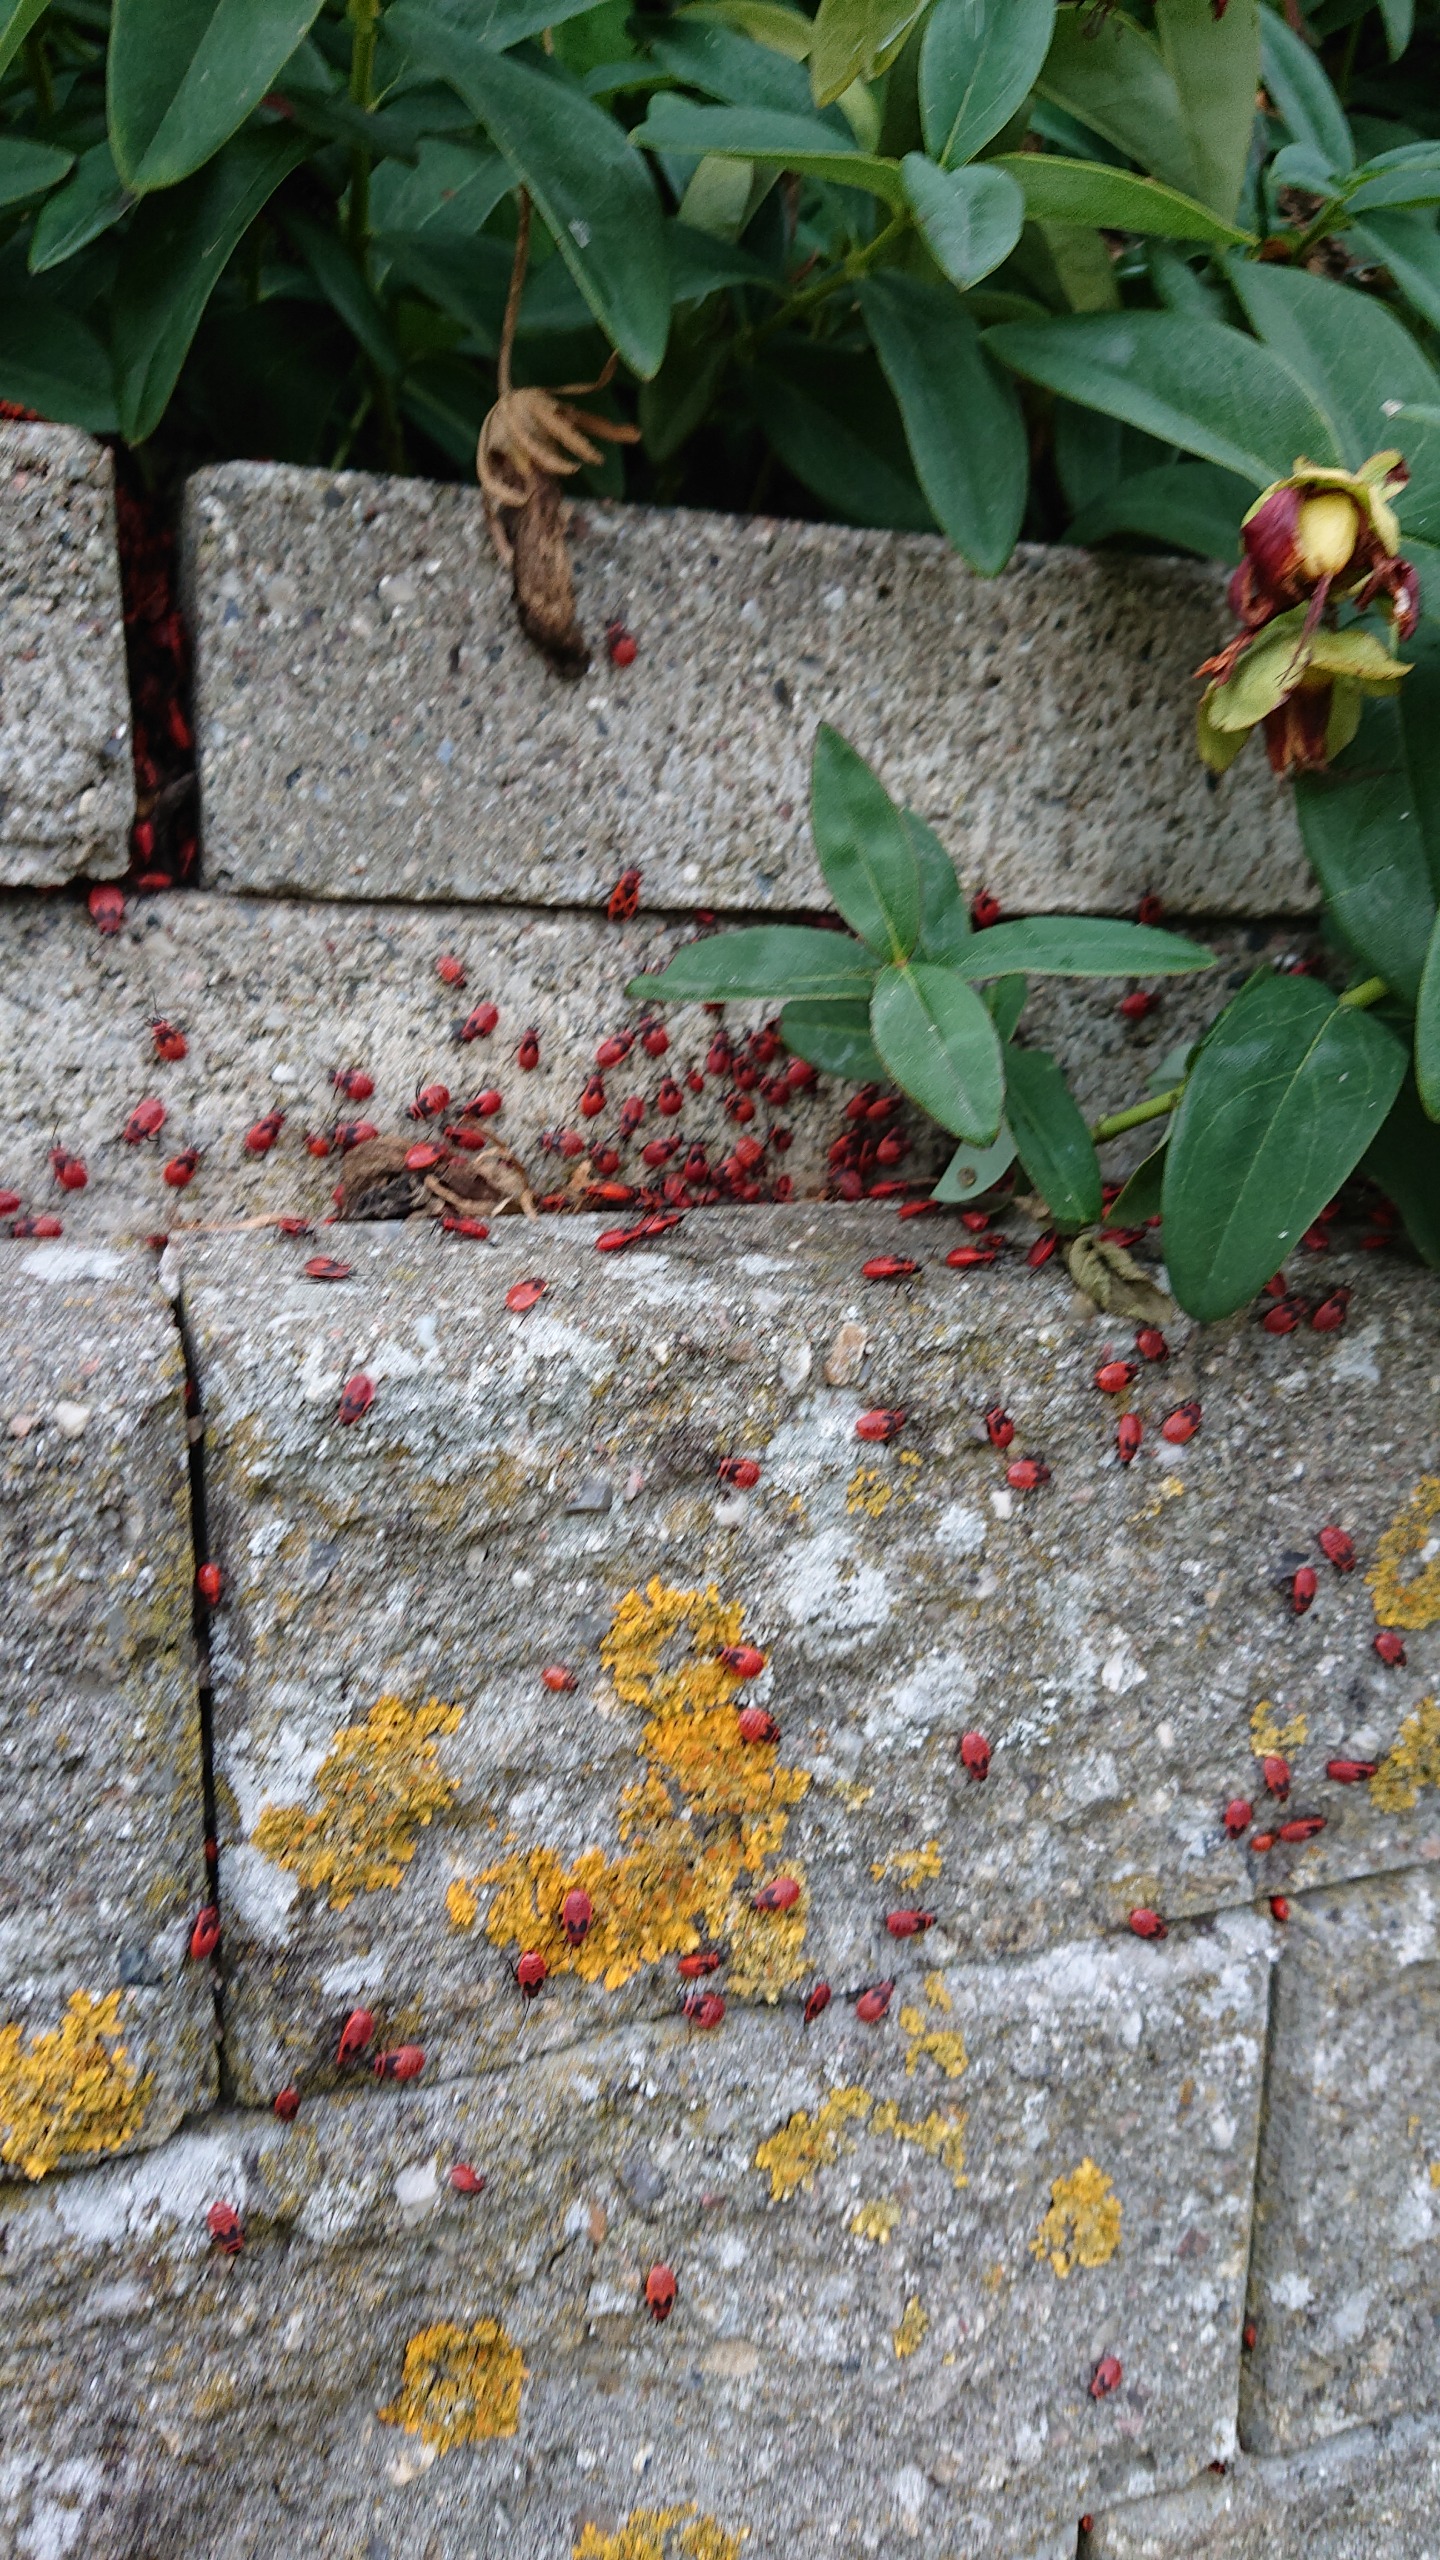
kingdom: Animalia
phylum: Arthropoda
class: Insecta
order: Hemiptera
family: Pyrrhocoridae
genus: Pyrrhocoris
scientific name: Pyrrhocoris apterus
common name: Ildtæge
